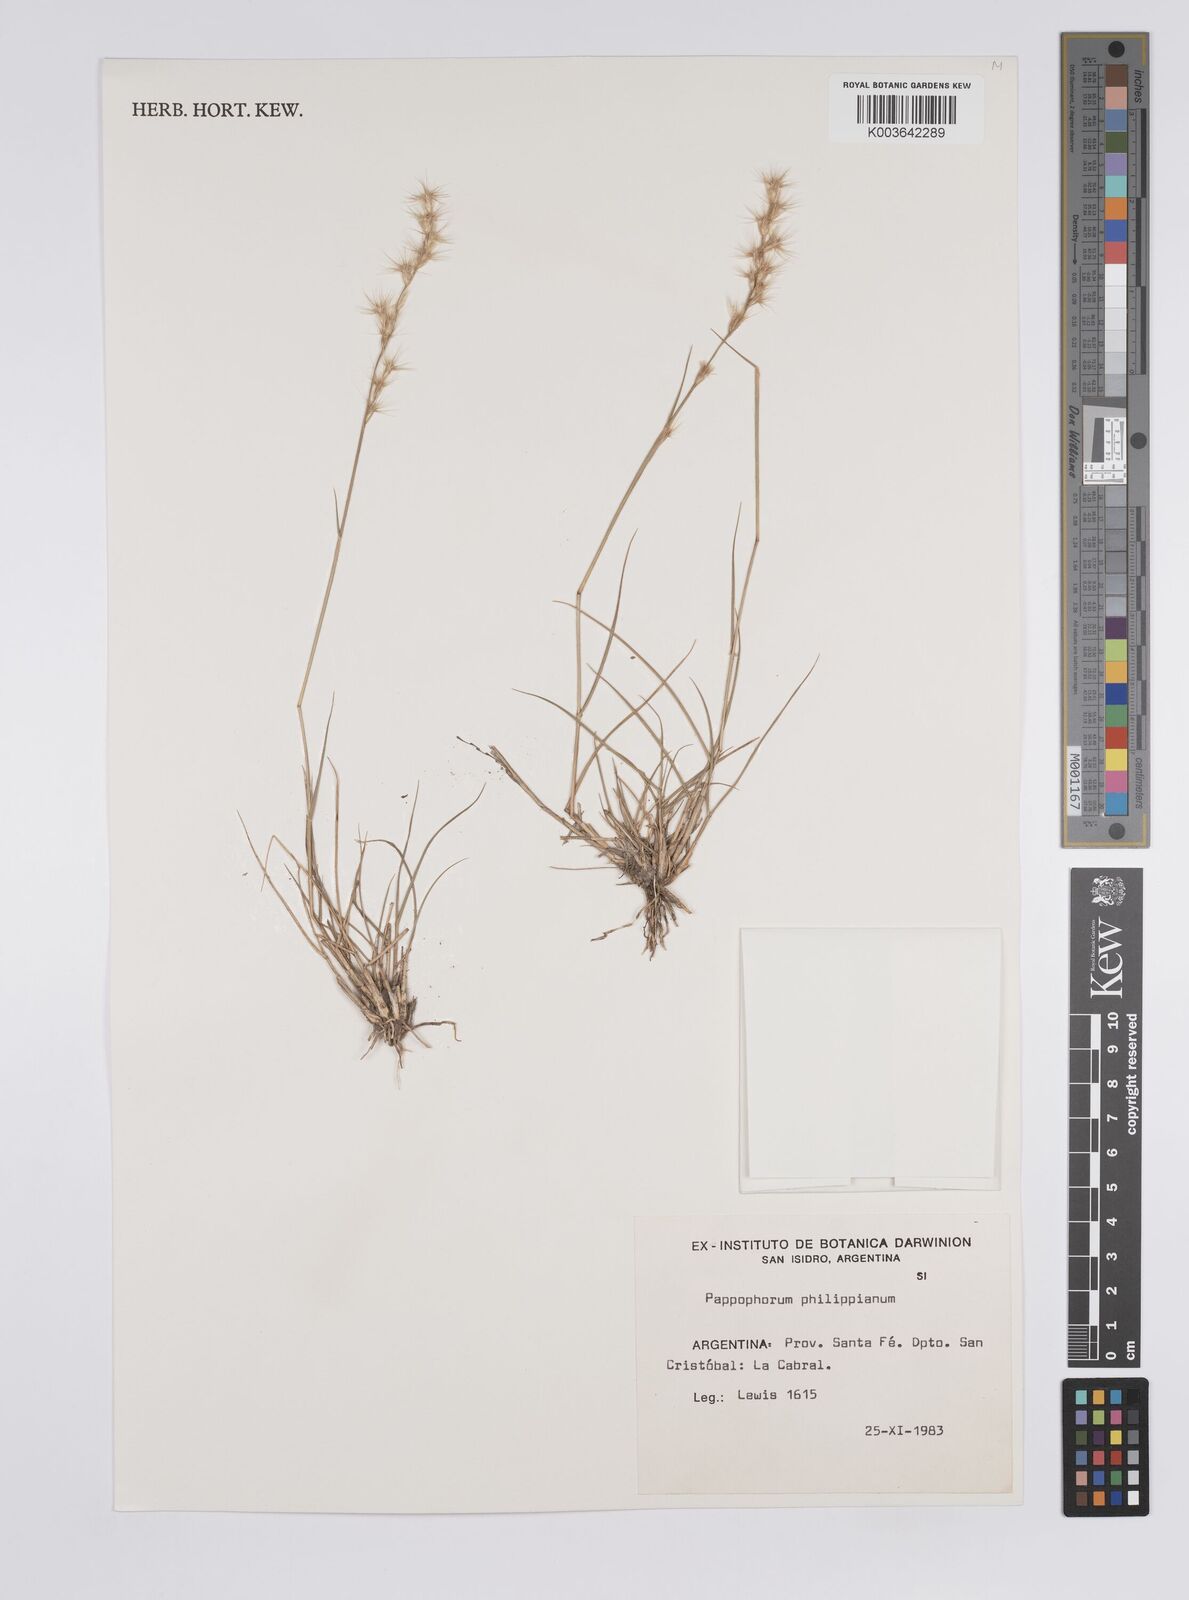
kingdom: Plantae
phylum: Tracheophyta
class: Liliopsida
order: Poales
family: Poaceae
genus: Pappophorum
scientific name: Pappophorum philippianum
